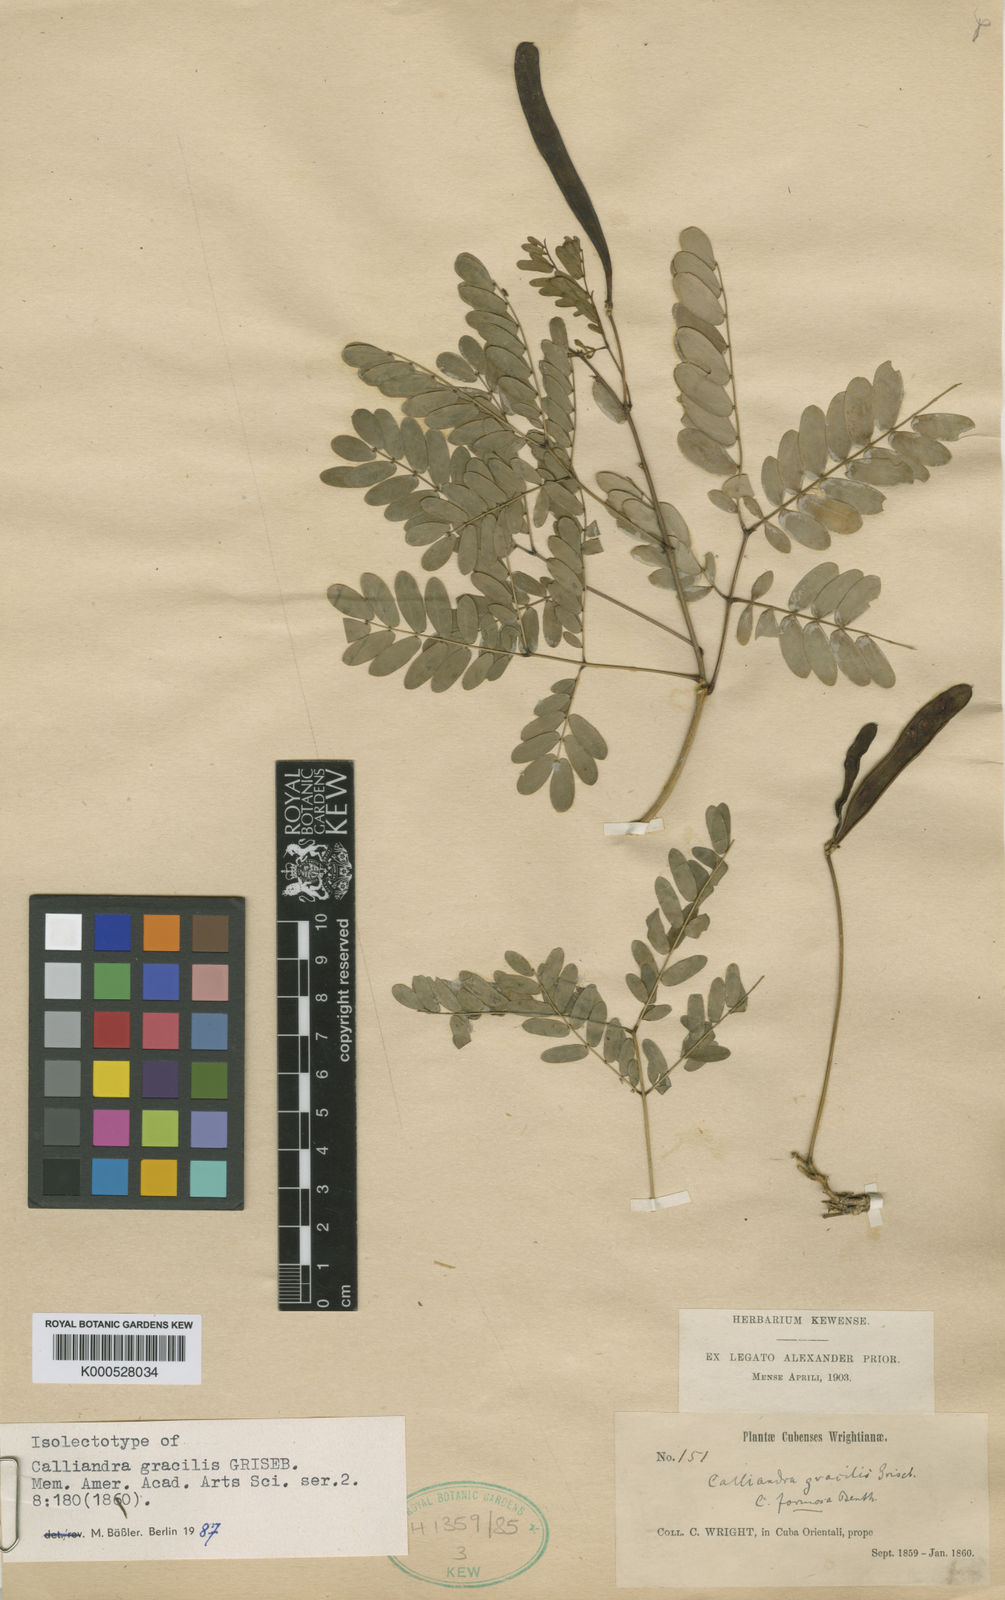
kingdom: Plantae
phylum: Tracheophyta
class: Magnoliopsida
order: Fabales
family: Fabaceae
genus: Zapoteca
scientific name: Zapoteca gracilis
